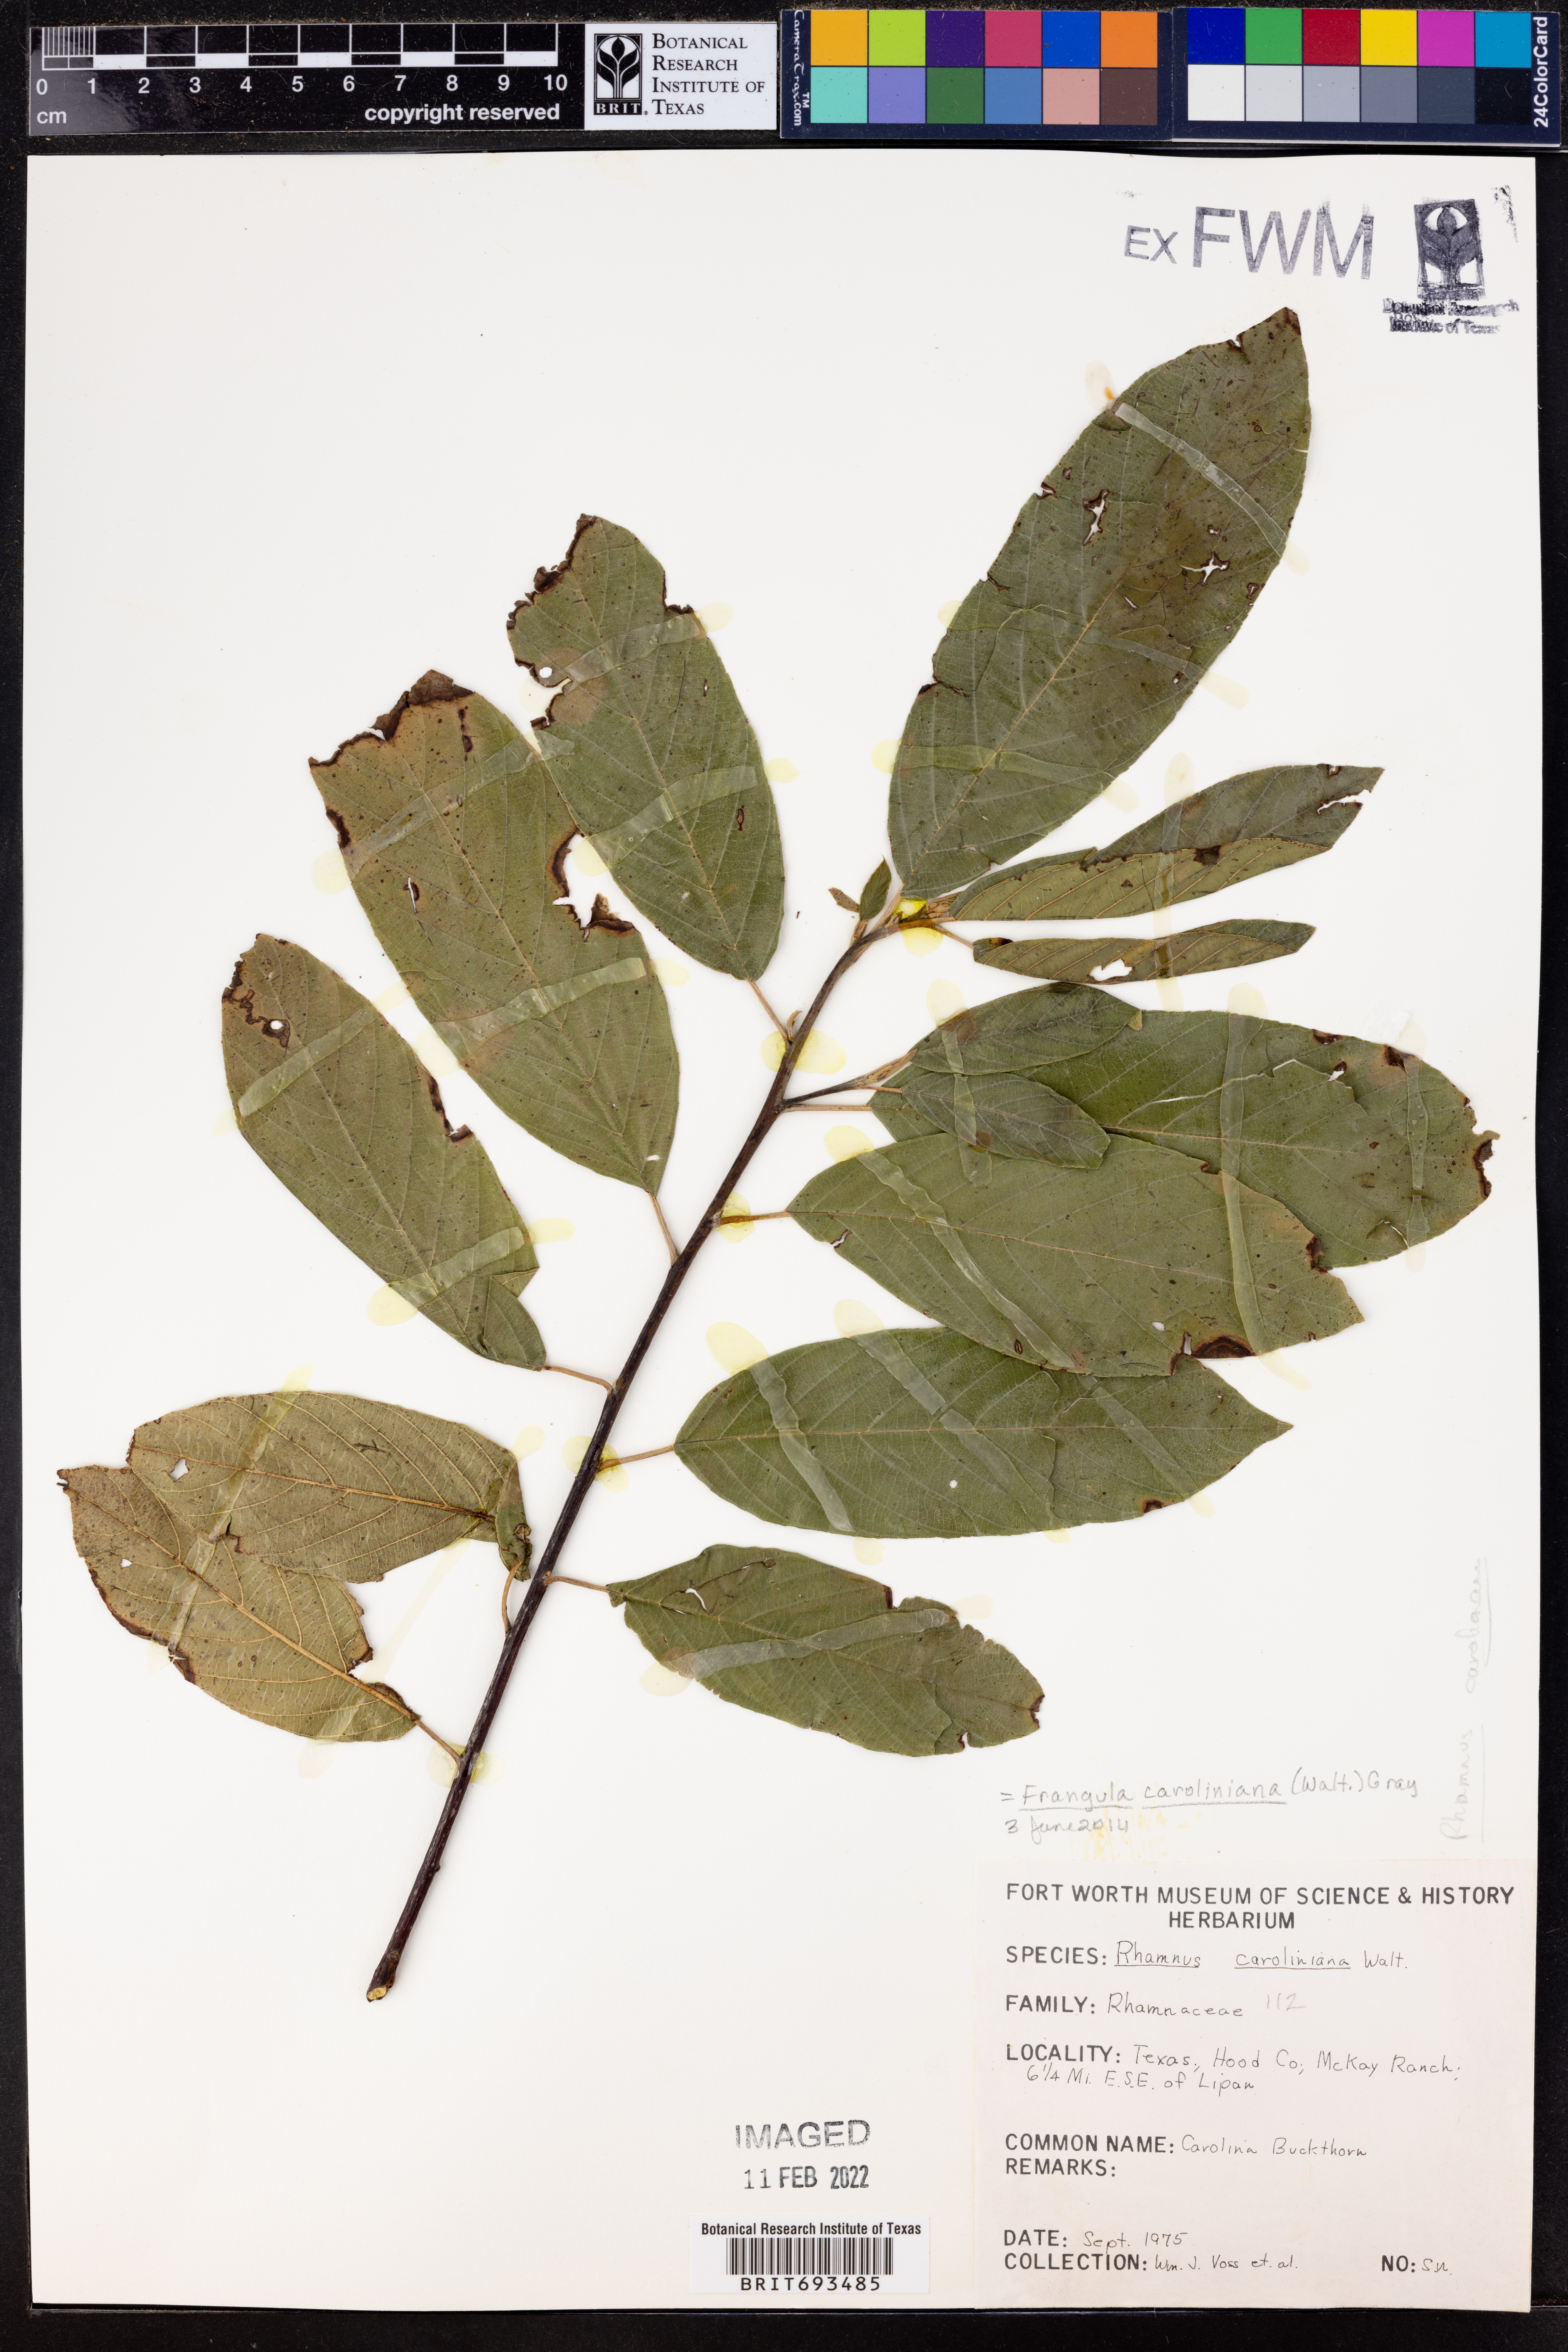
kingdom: Plantae
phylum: Tracheophyta
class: Magnoliopsida
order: Rosales
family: Rhamnaceae
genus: Frangula
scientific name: Frangula caroliniana
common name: Carolina buckthorn
